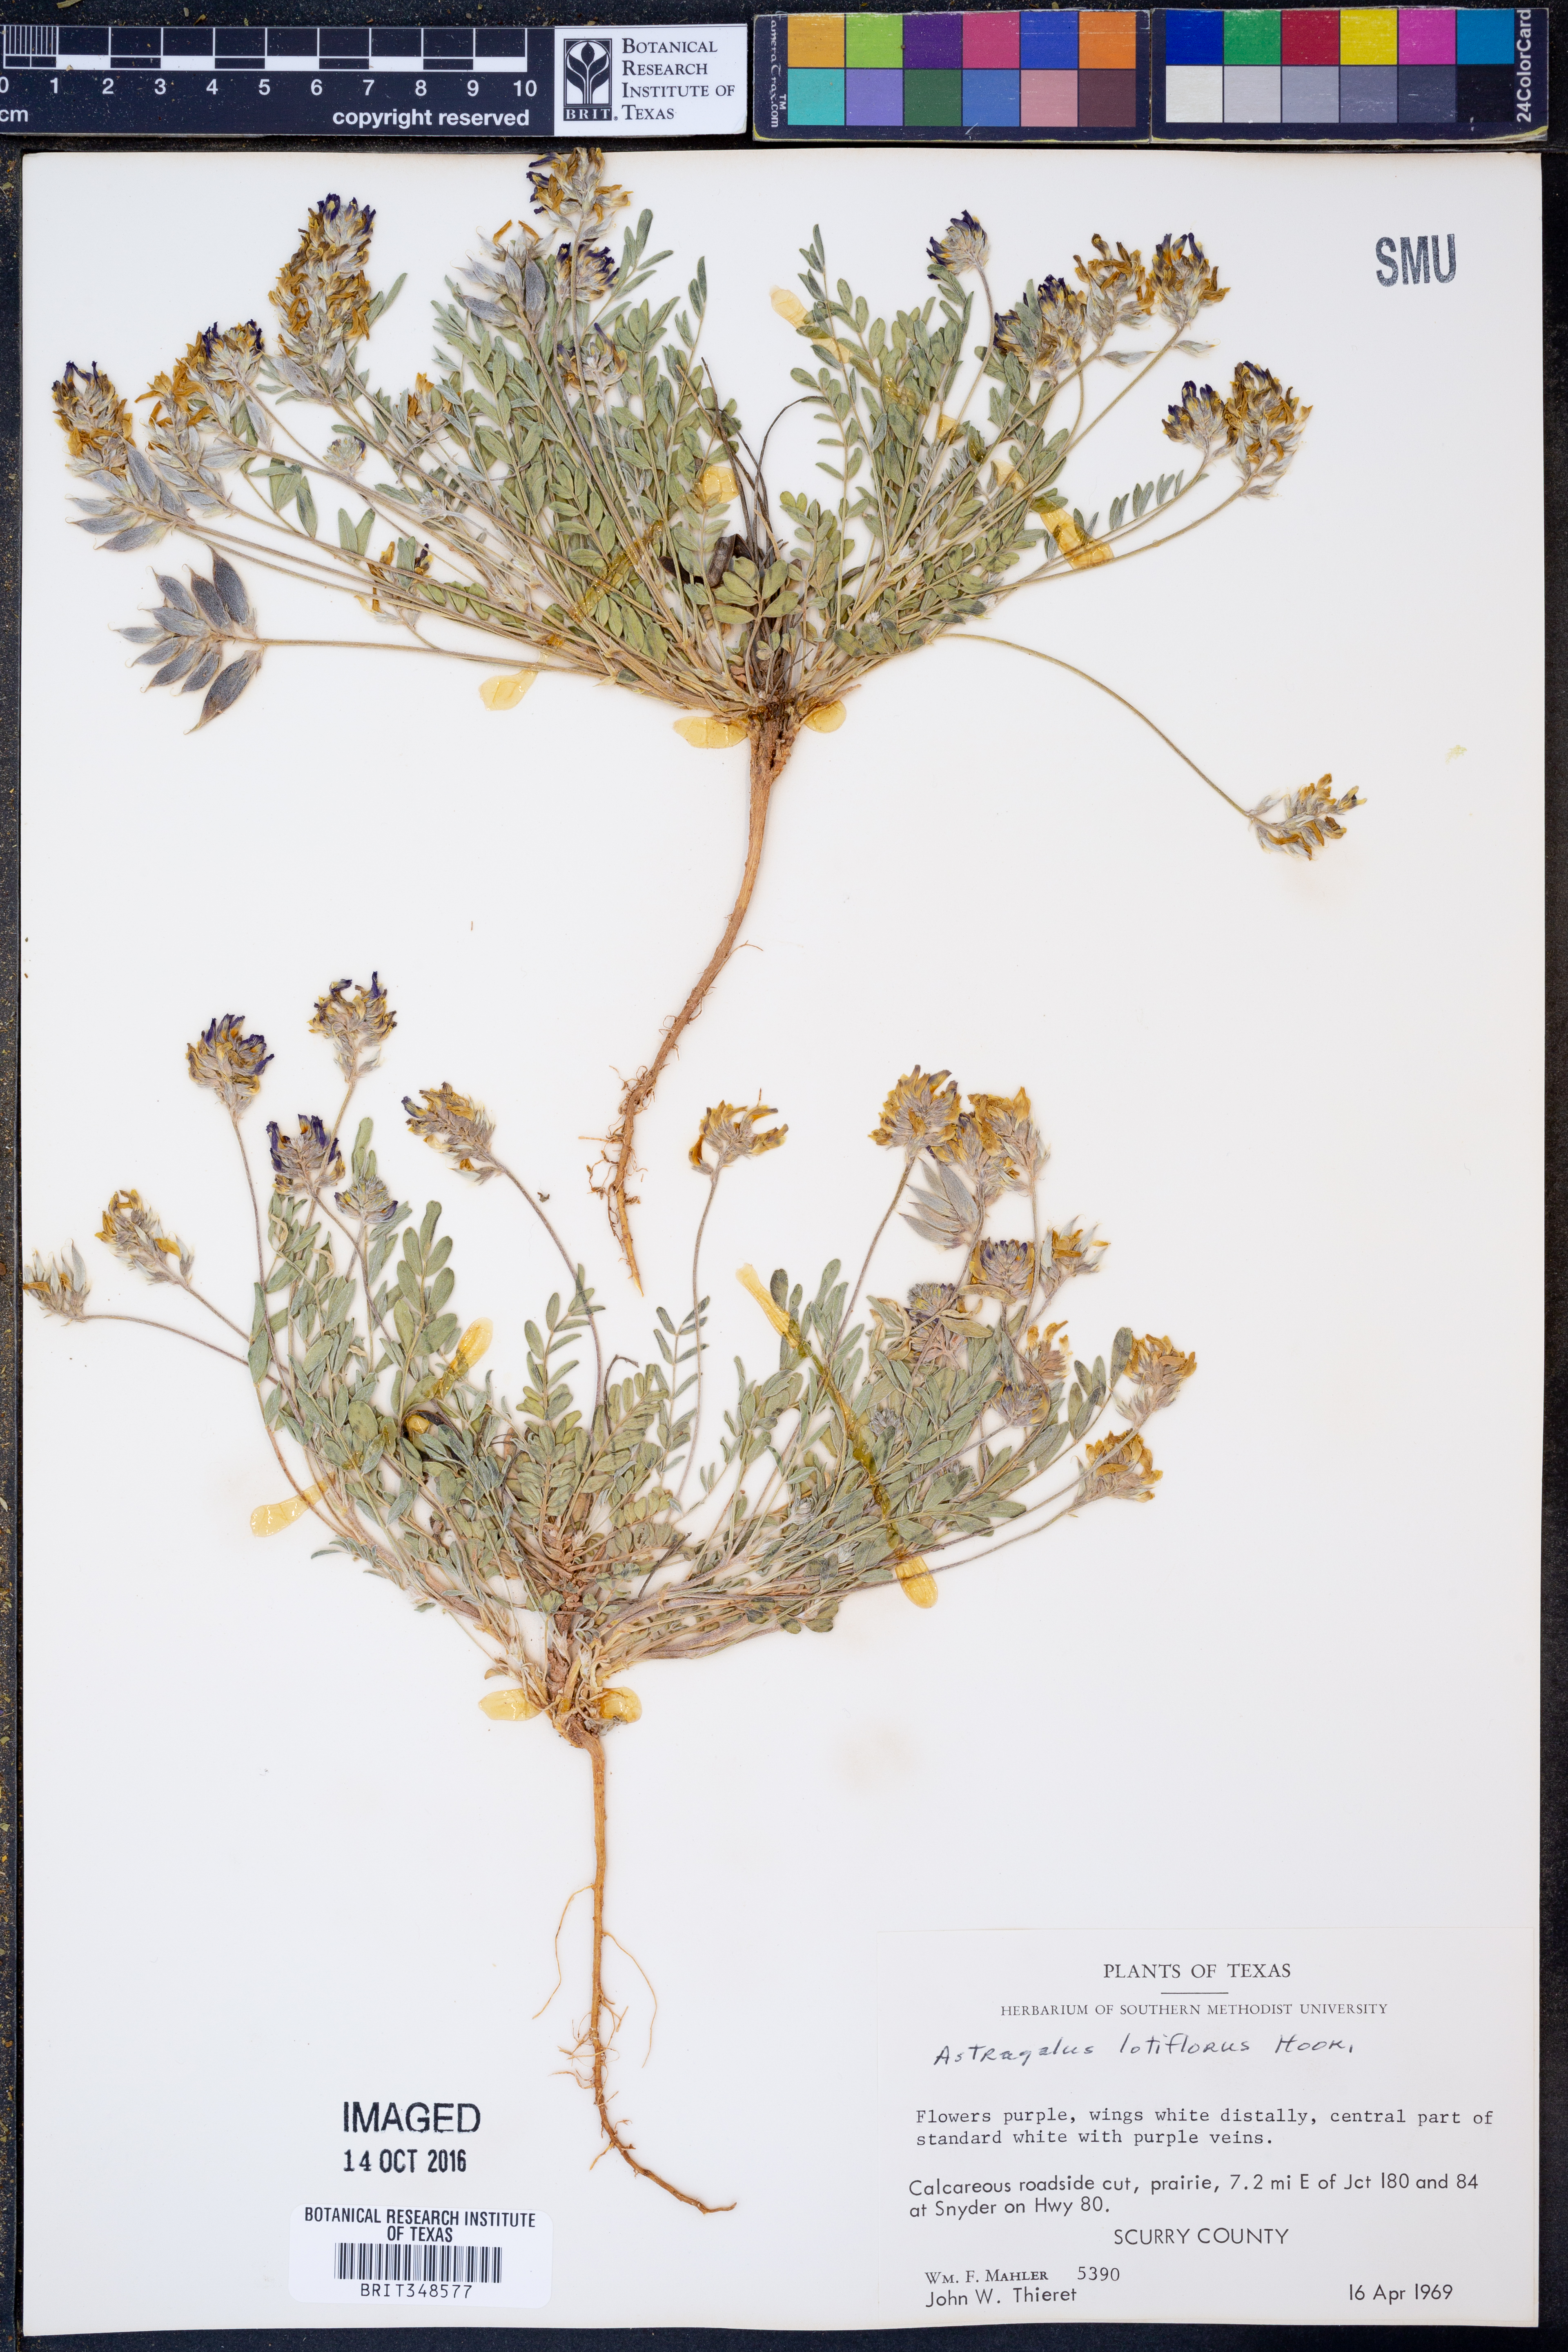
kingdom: Plantae
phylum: Tracheophyta
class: Magnoliopsida
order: Fabales
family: Fabaceae
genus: Astragalus
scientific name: Astragalus lotiflorus
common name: Lotus milk-vetch
